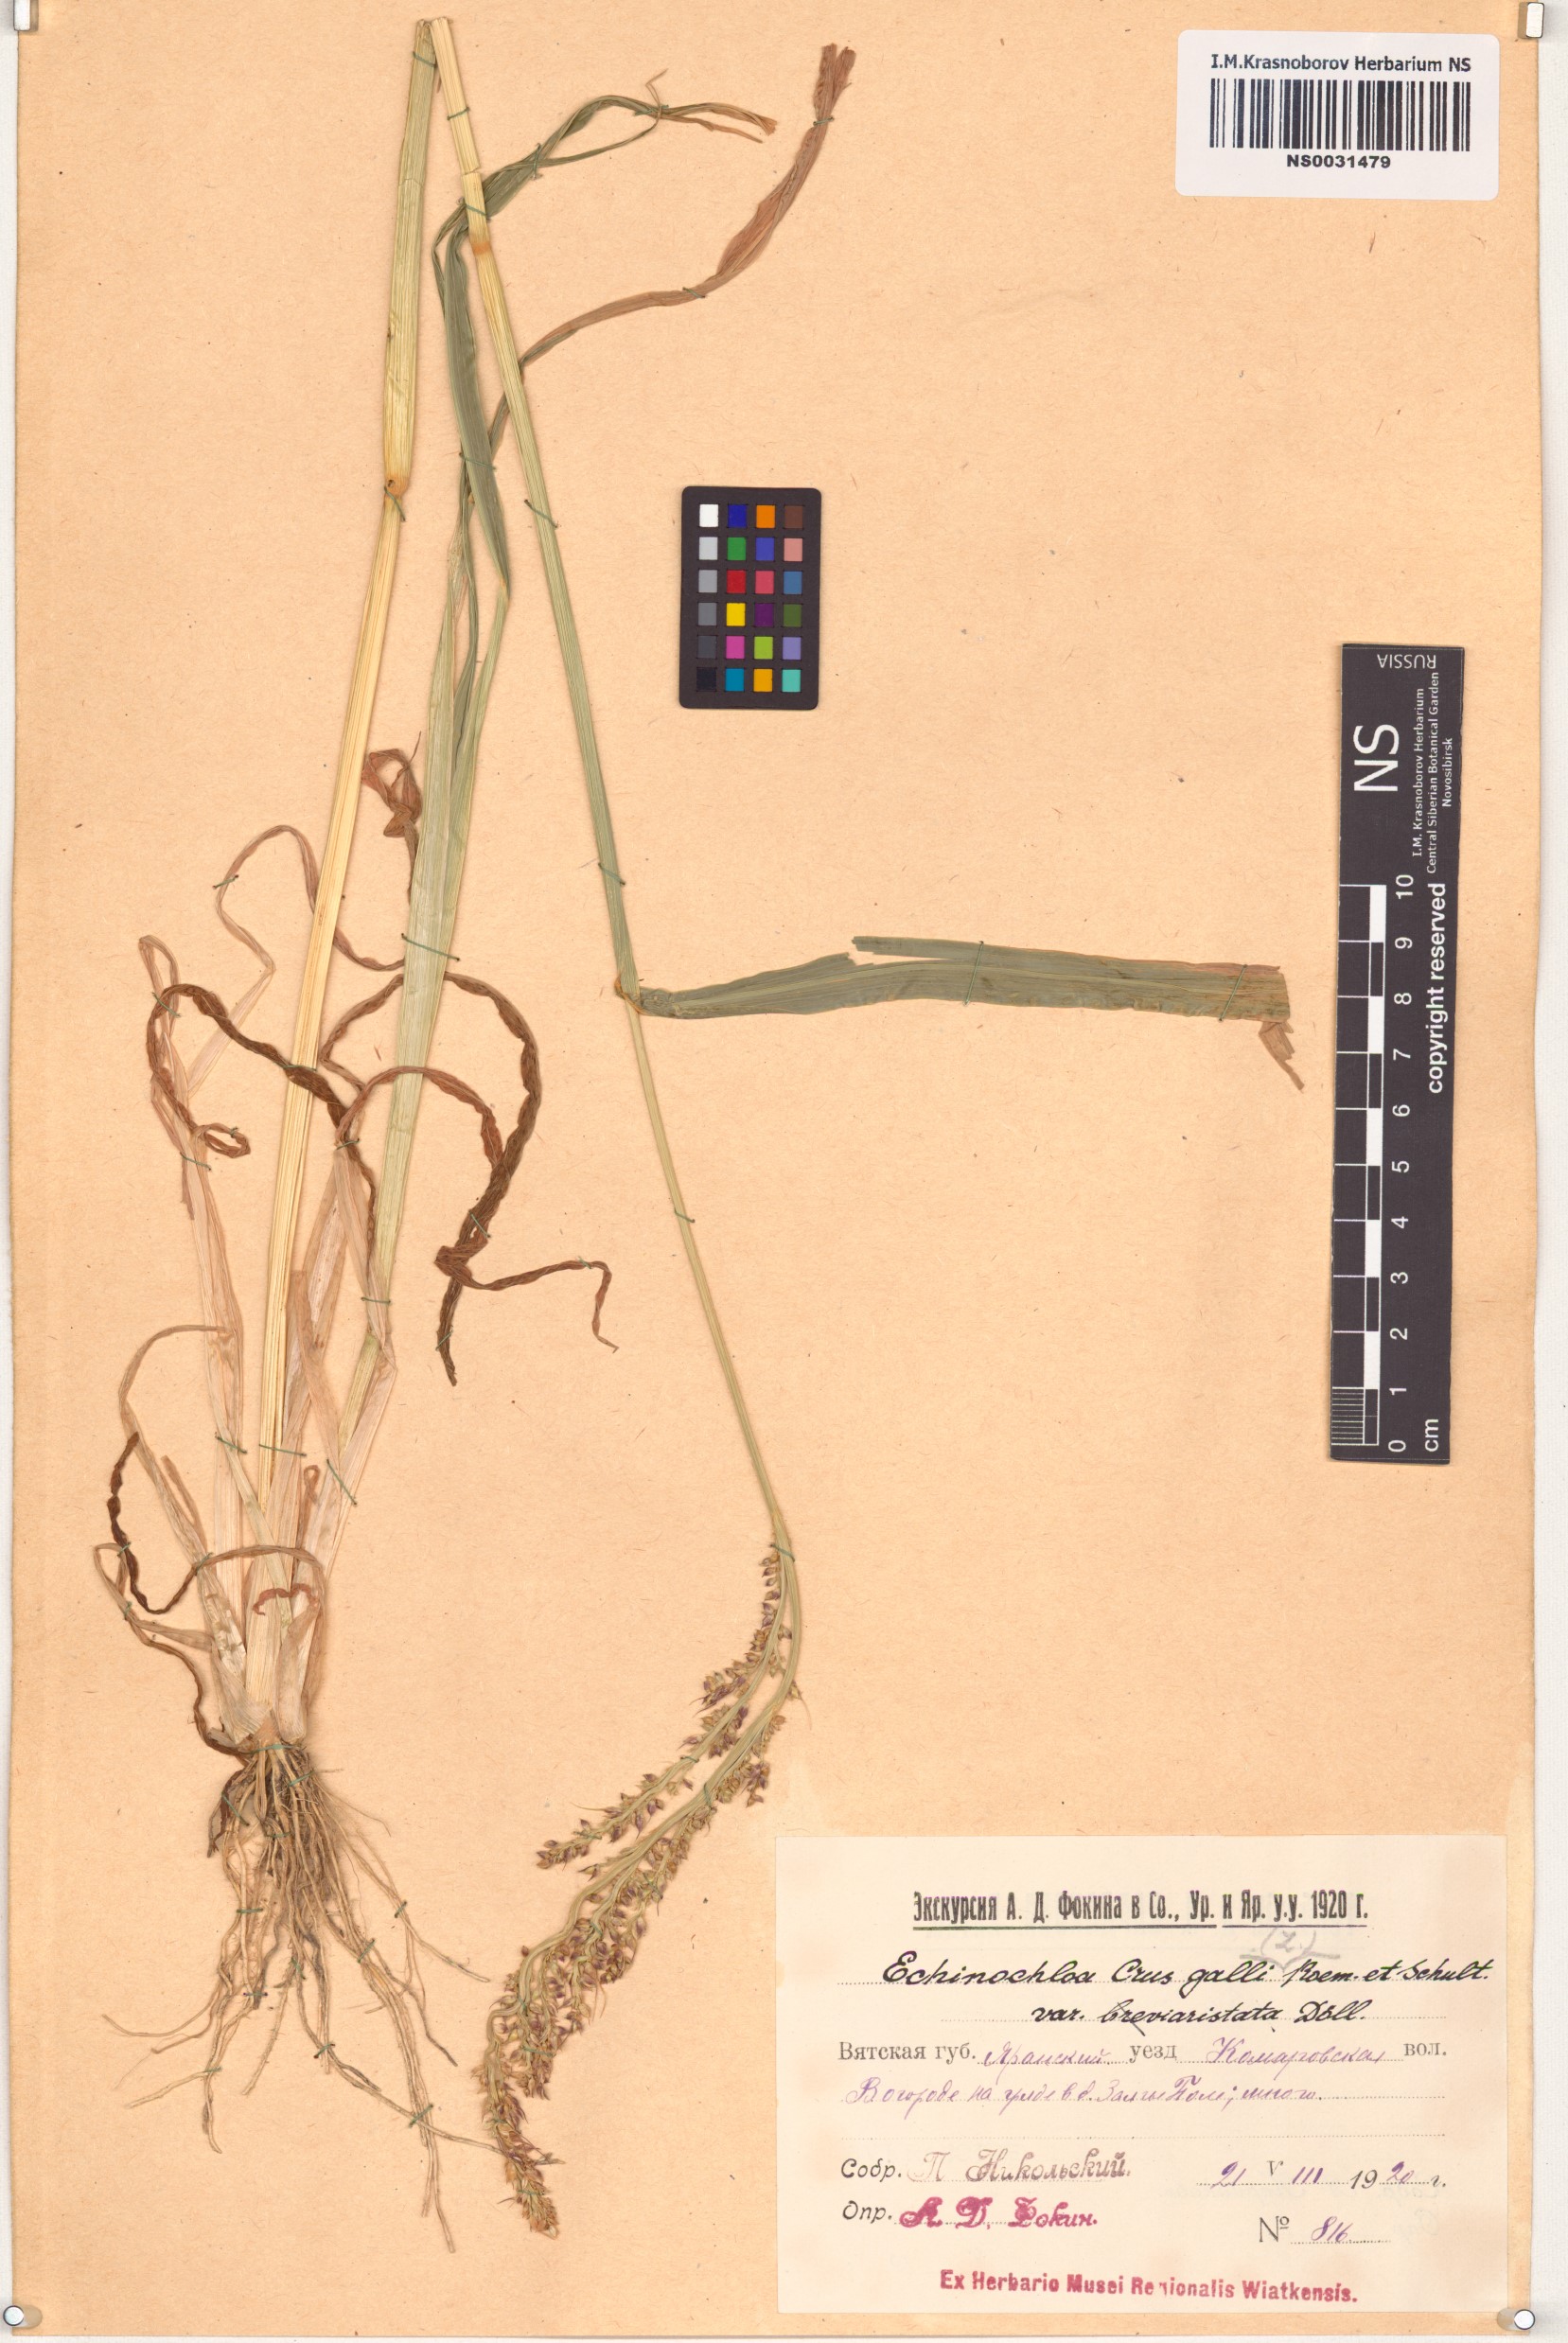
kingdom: Plantae
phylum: Tracheophyta
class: Liliopsida
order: Poales
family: Poaceae
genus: Echinochloa
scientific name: Echinochloa crus-galli
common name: Cockspur
